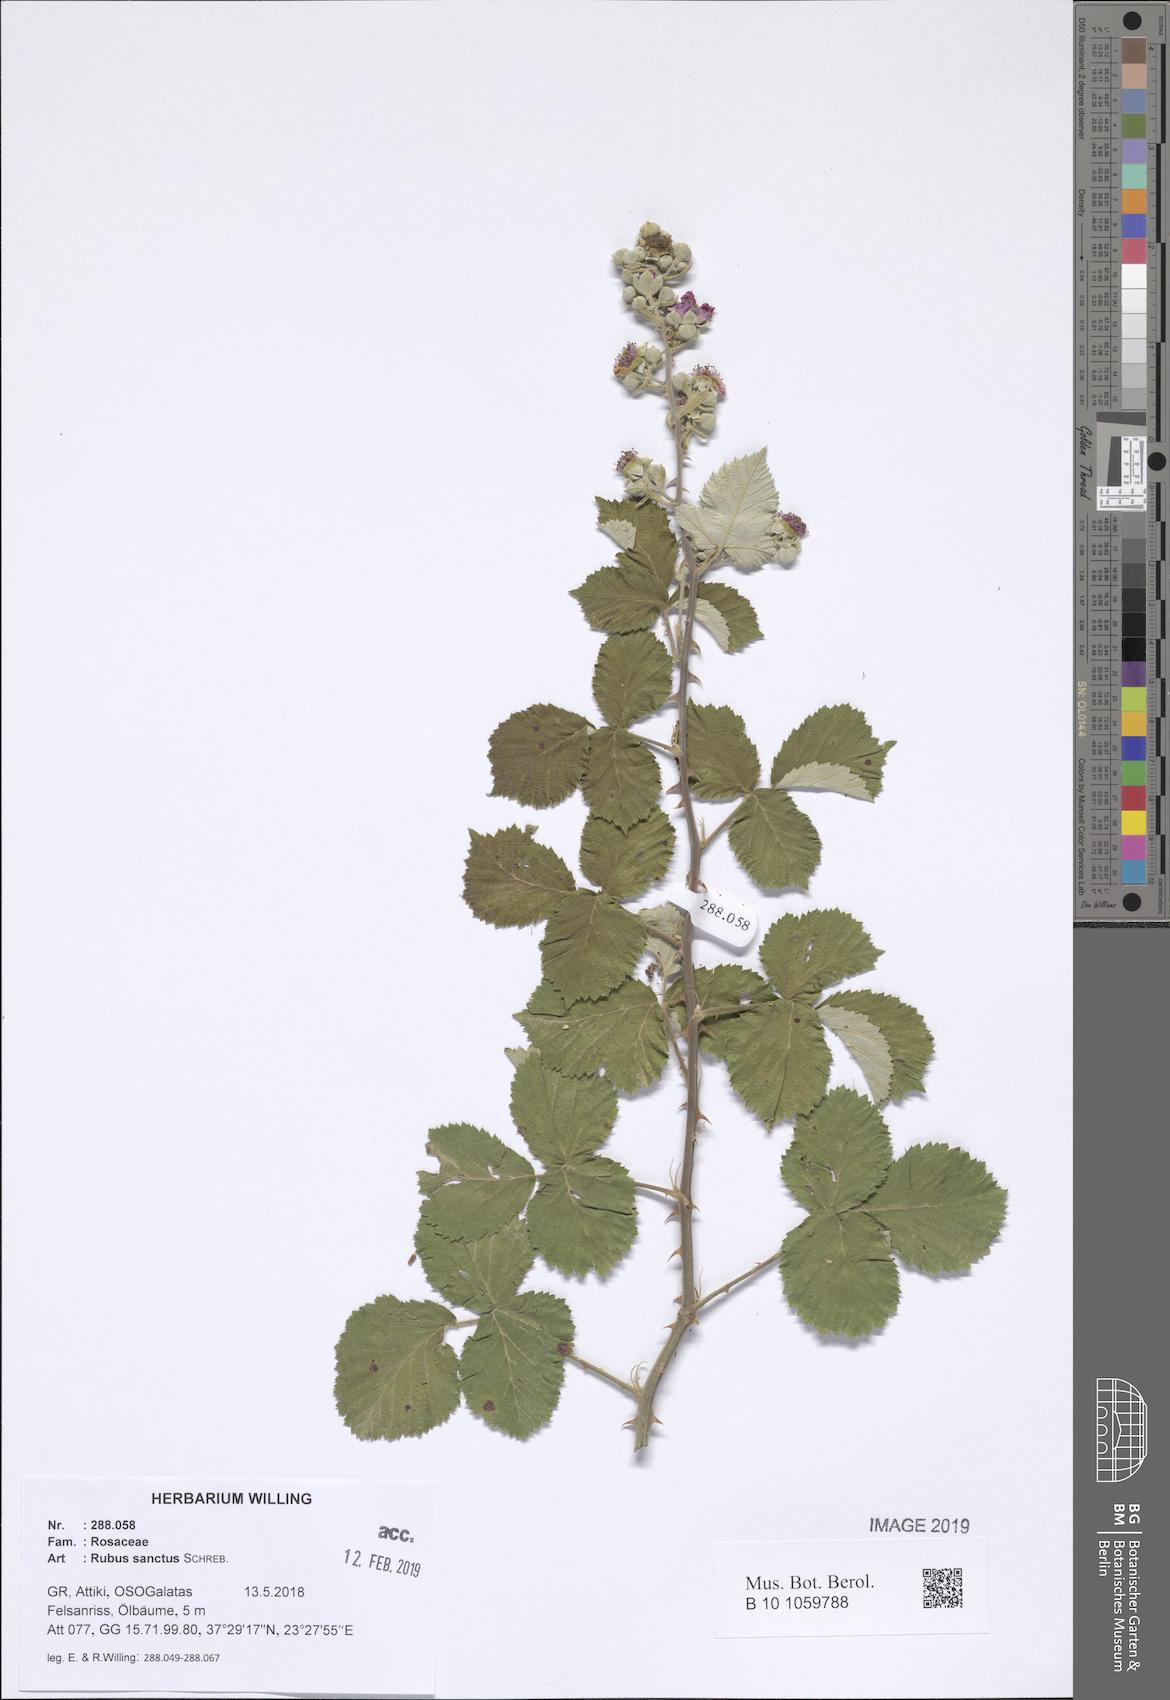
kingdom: Plantae
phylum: Tracheophyta
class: Magnoliopsida
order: Rosales
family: Rosaceae
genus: Rubus
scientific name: Rubus sanctus
